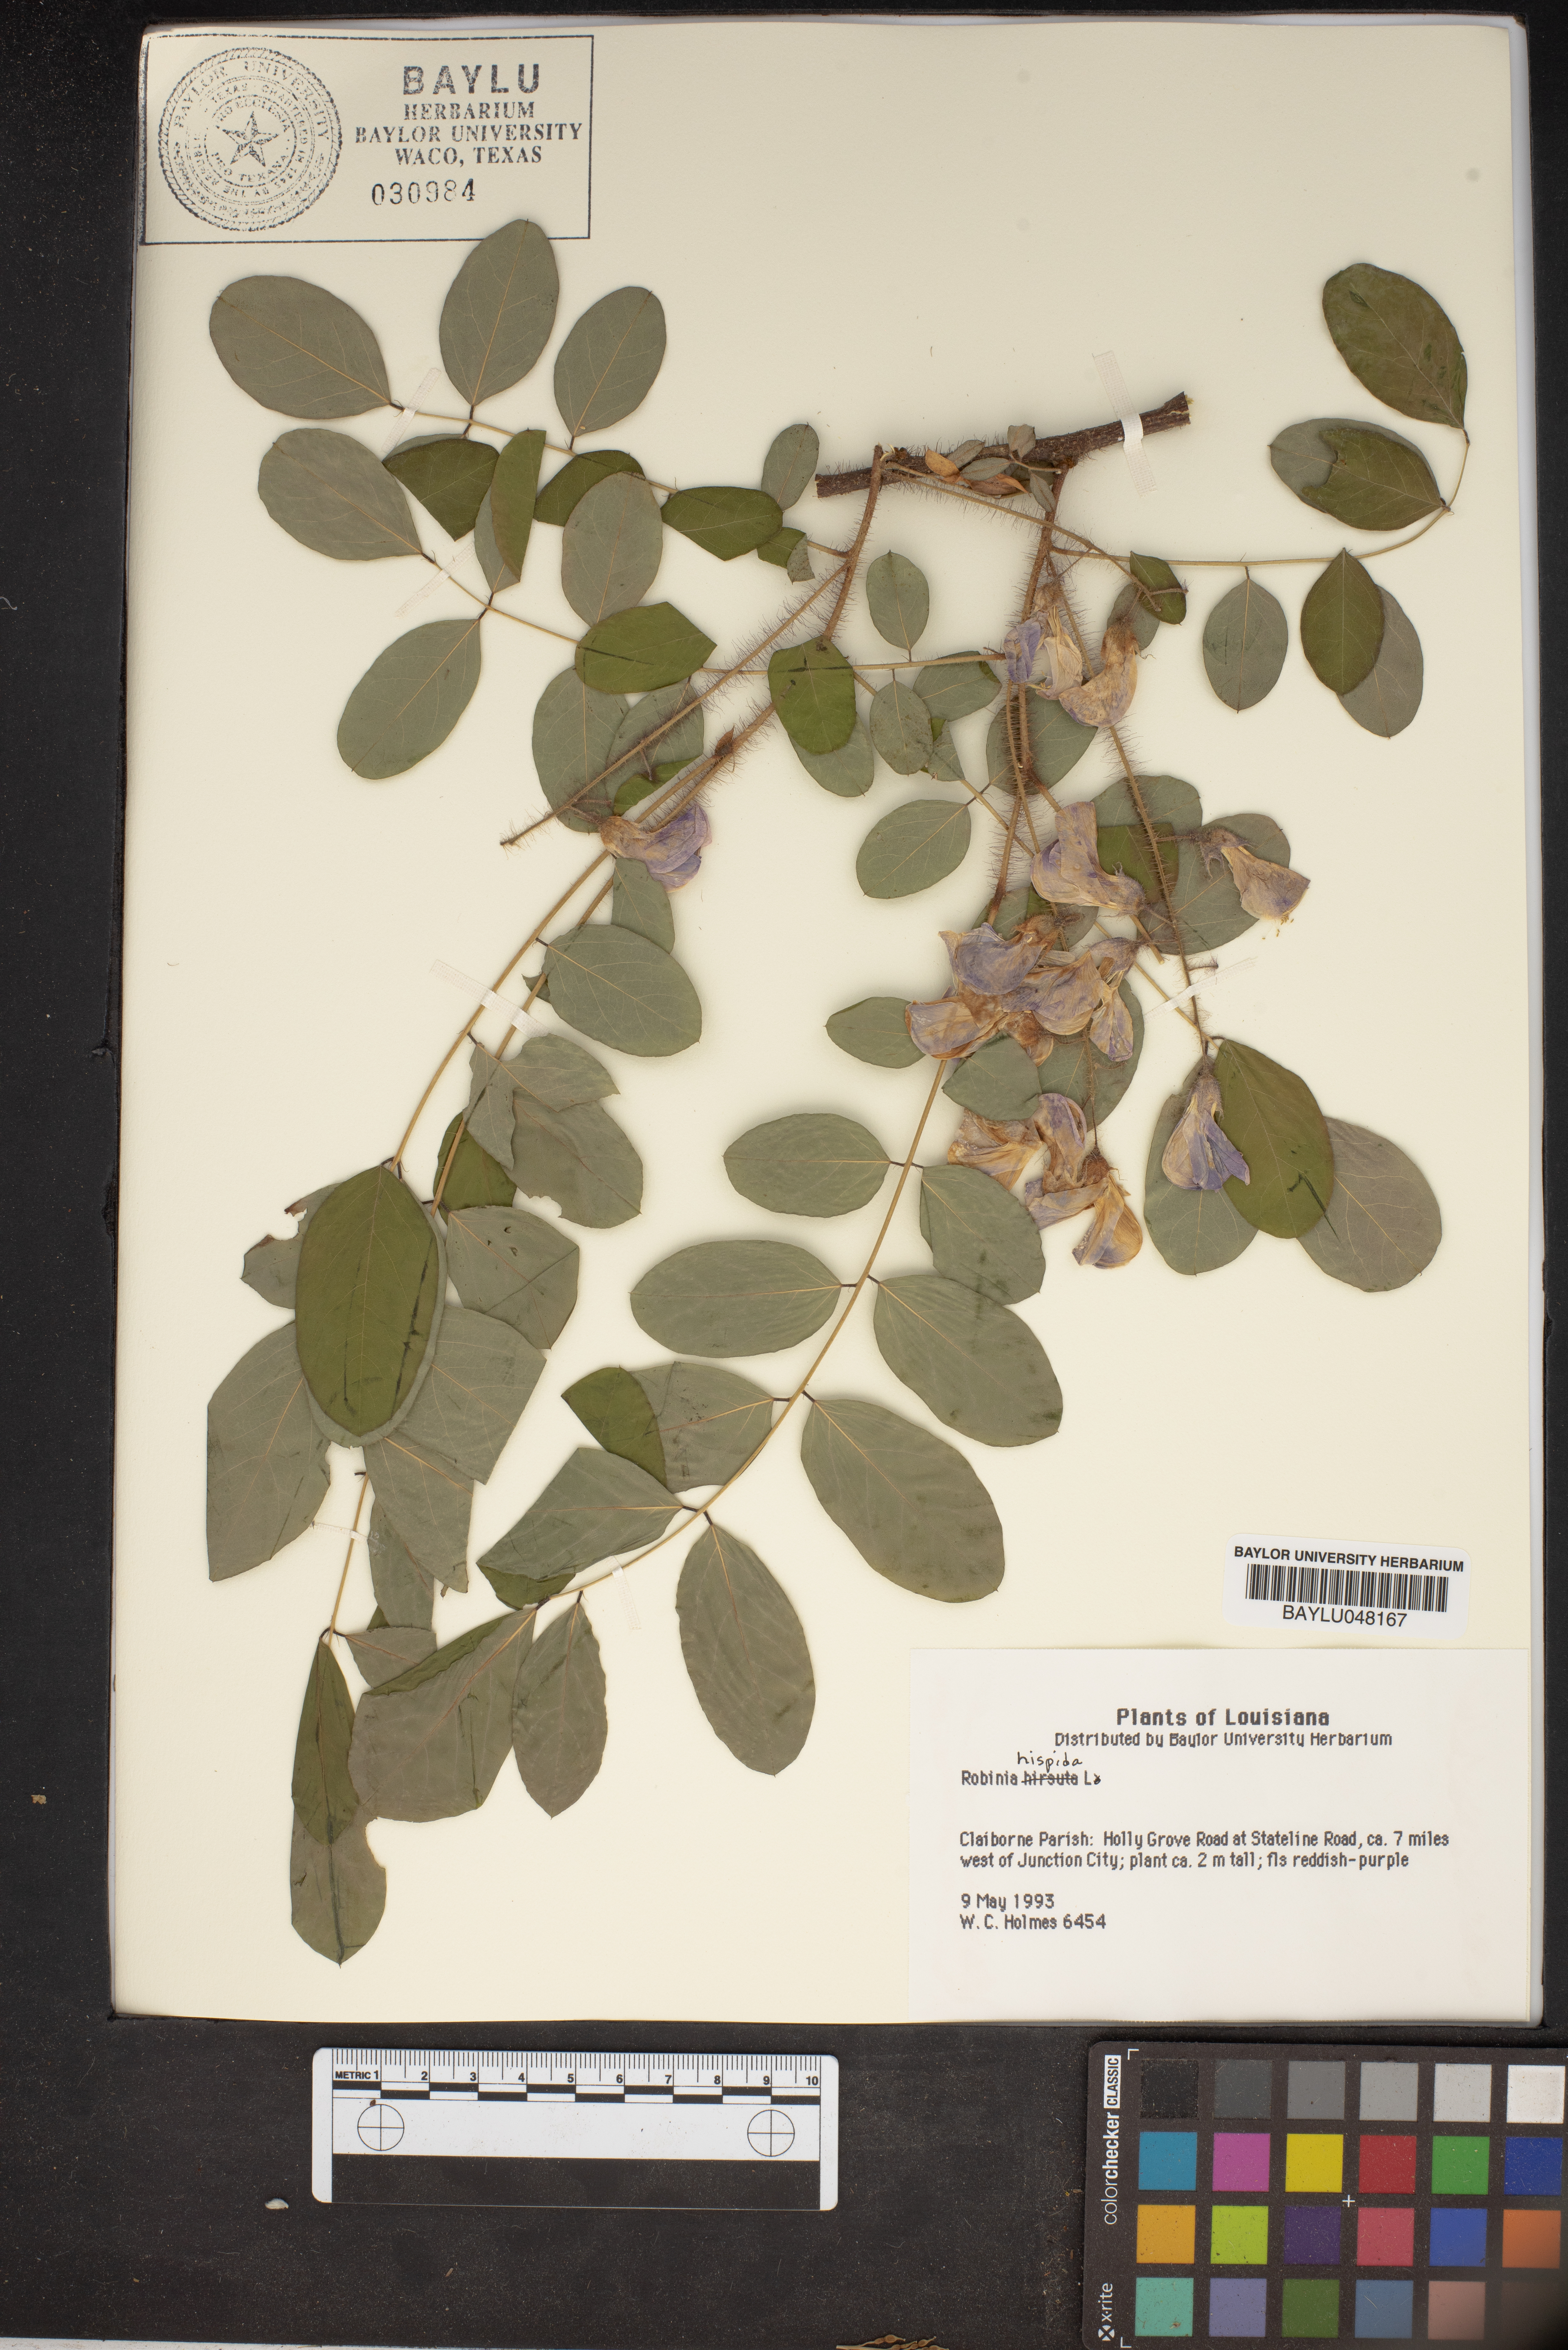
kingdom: Plantae
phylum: Tracheophyta
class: Magnoliopsida
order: Fabales
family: Fabaceae
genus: Robinia
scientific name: Robinia hispida
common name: Bristly locust
